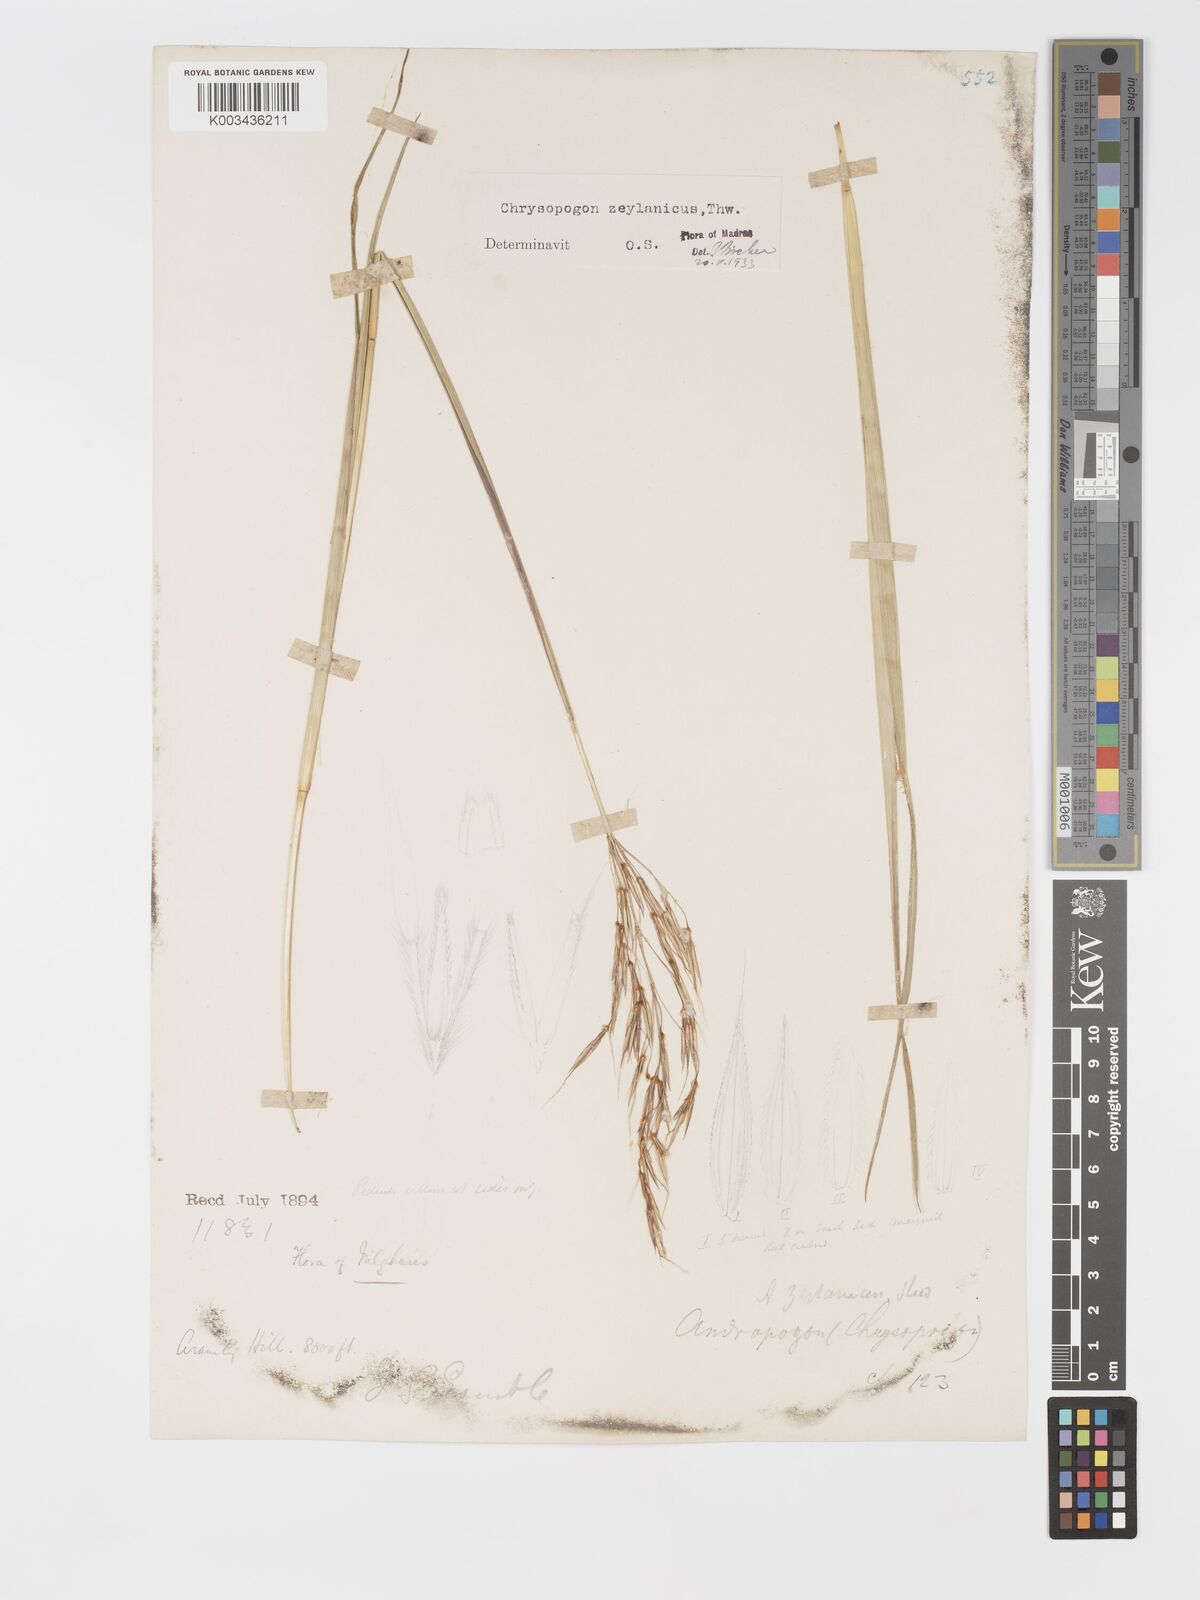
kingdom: Plantae
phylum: Tracheophyta
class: Liliopsida
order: Poales
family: Poaceae
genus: Chrysopogon
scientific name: Chrysopogon nodulibarbis
